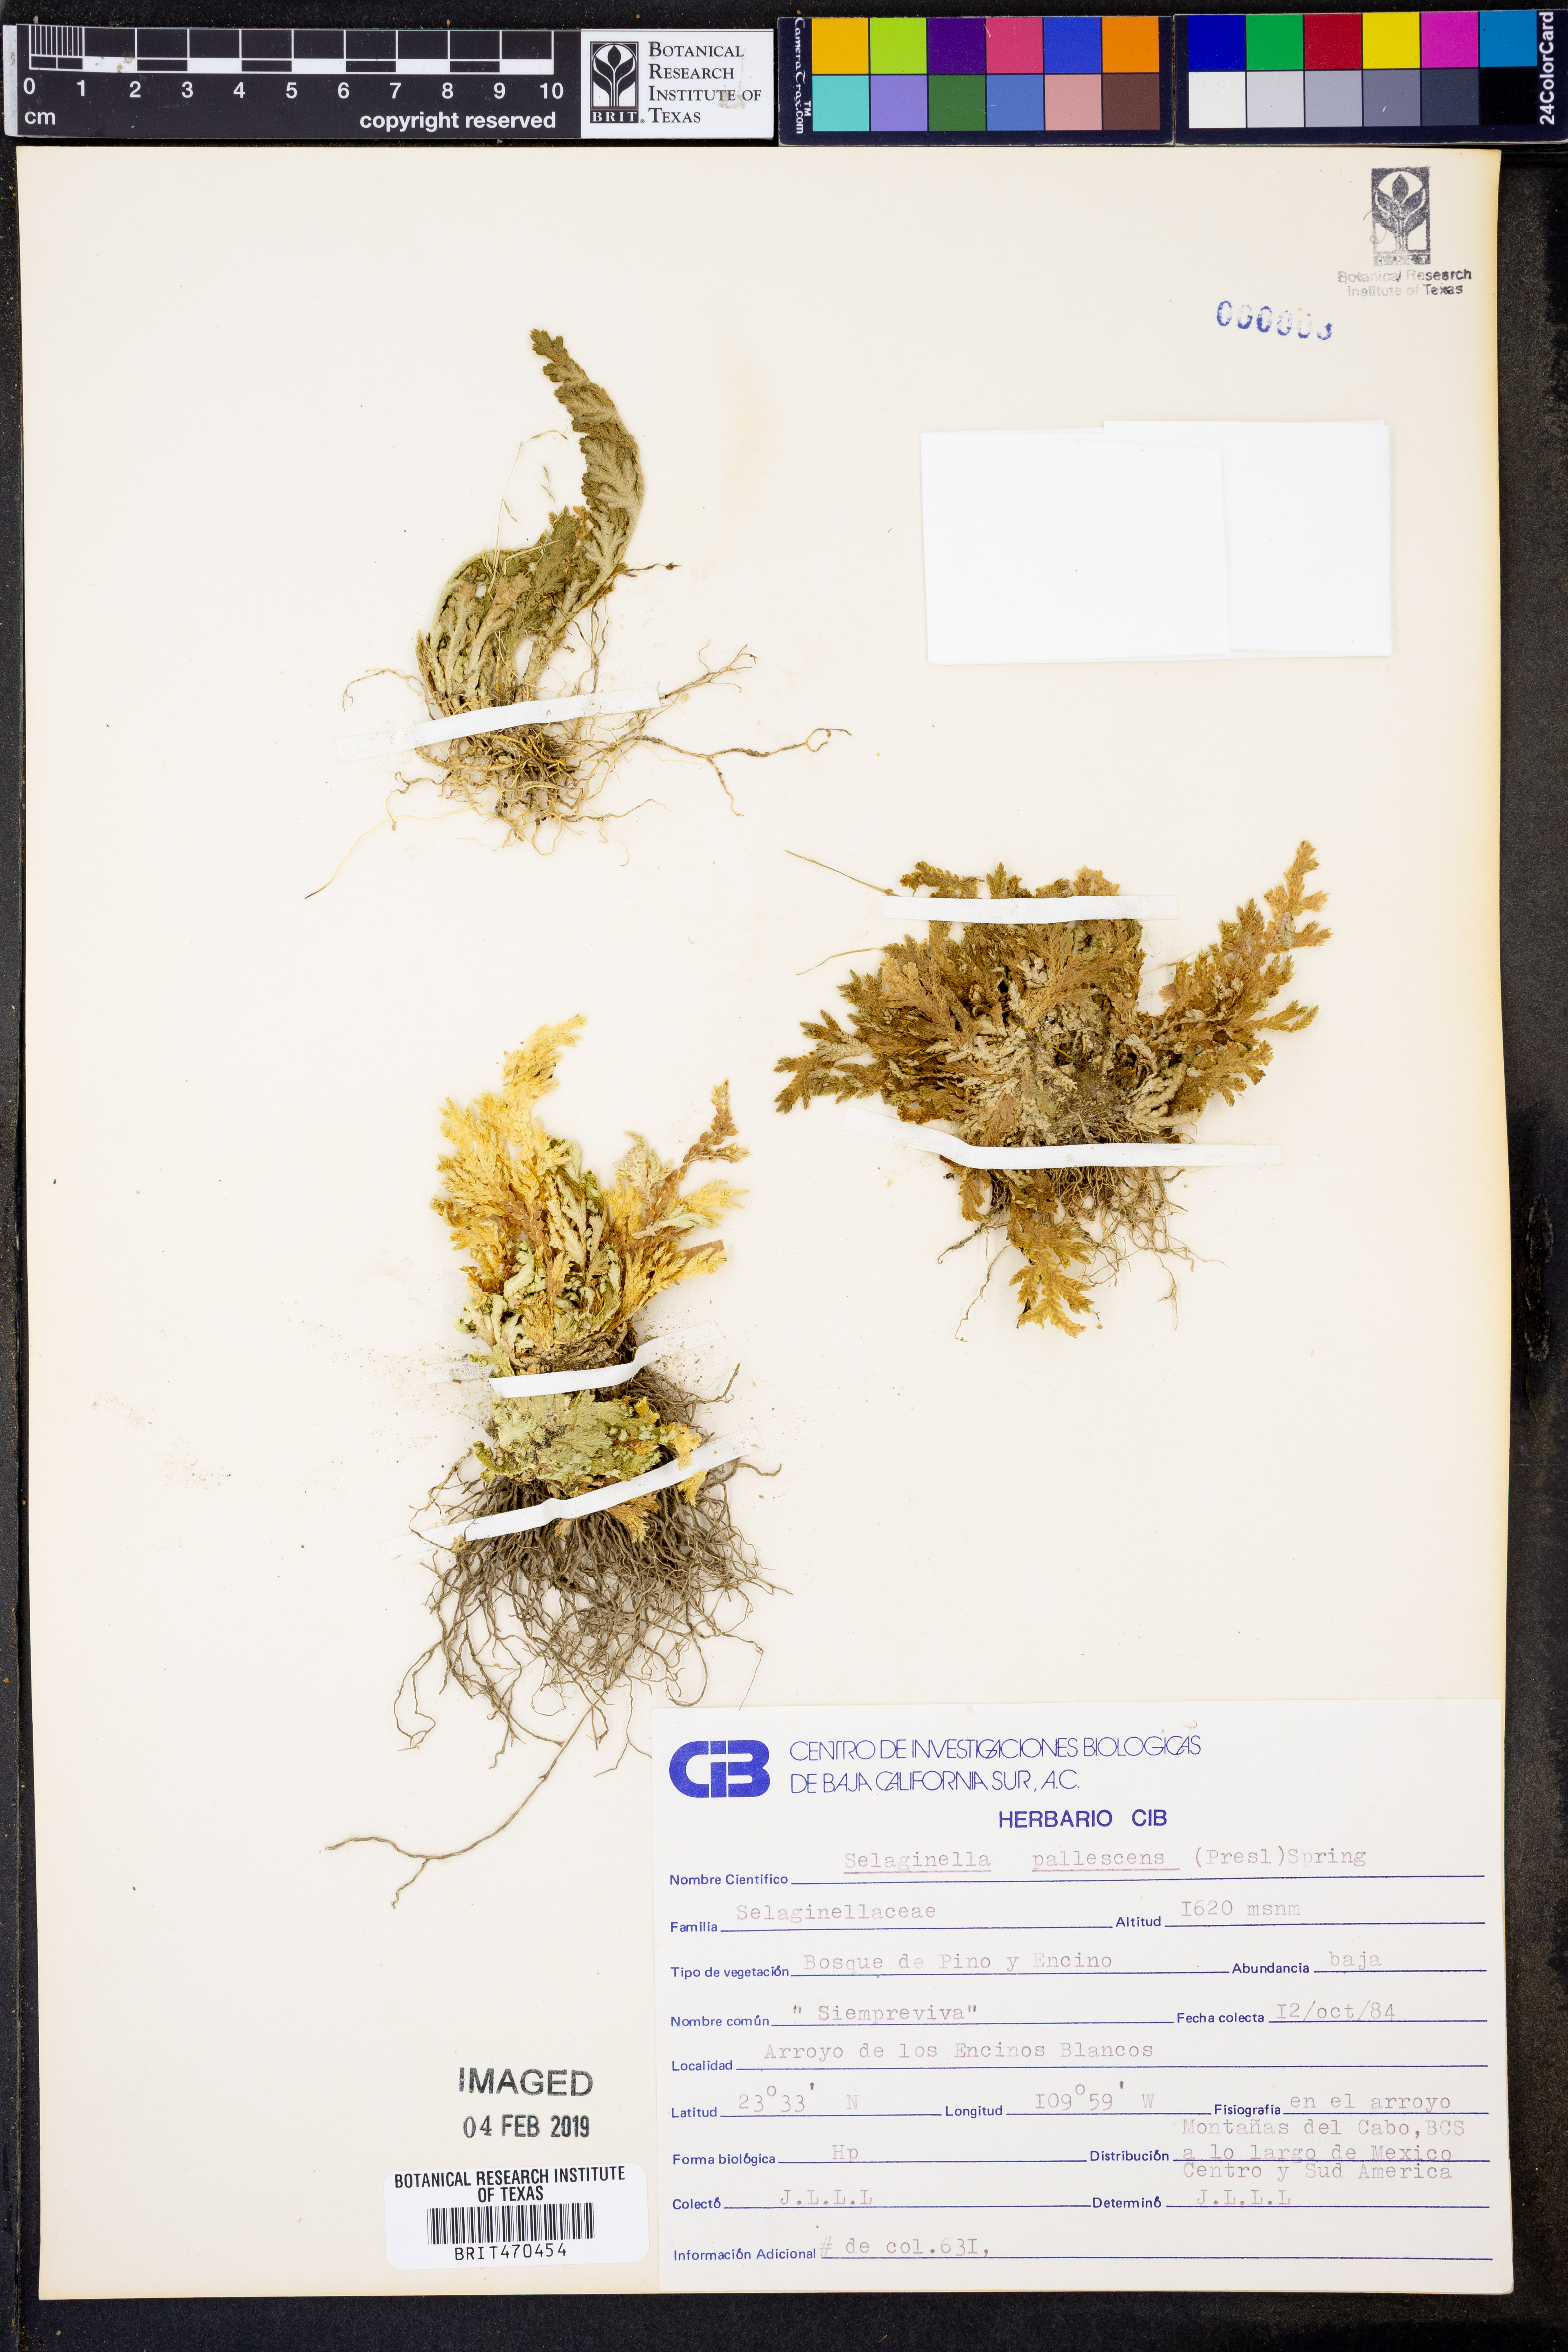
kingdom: Plantae
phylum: Tracheophyta
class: Lycopodiopsida
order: Selaginellales
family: Selaginellaceae
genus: Selaginella
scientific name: Selaginella pallescens
